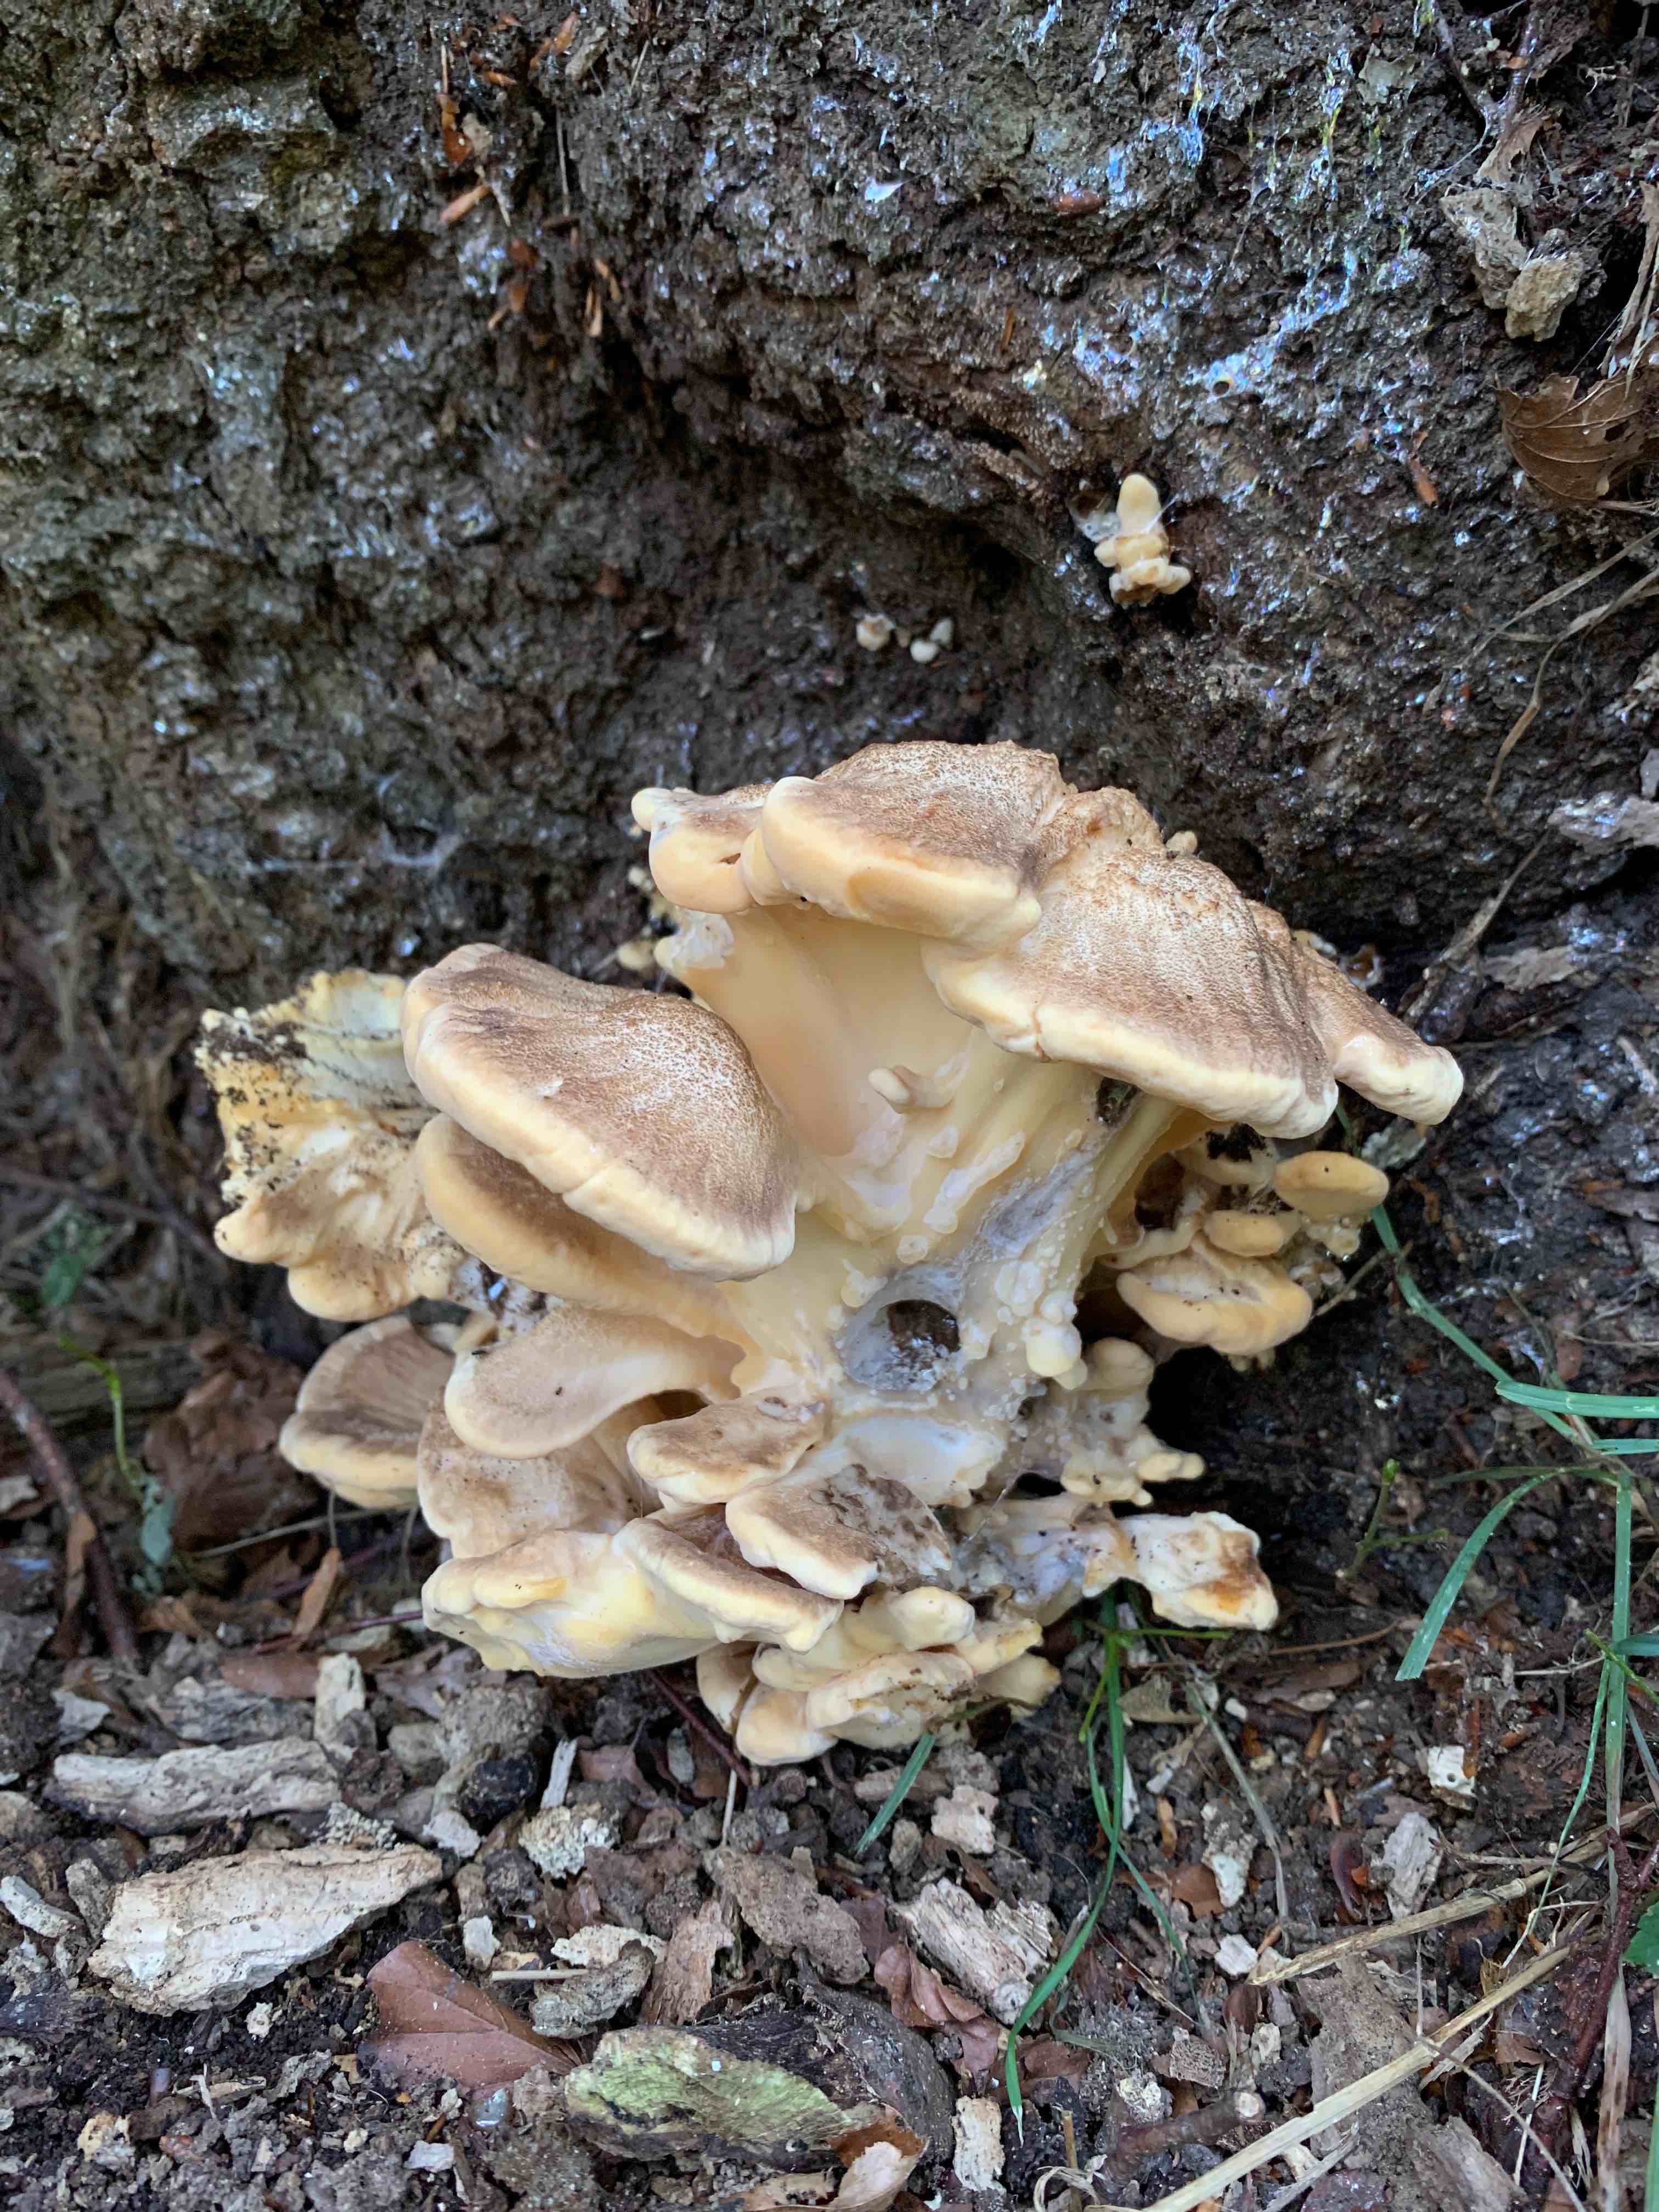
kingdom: Fungi
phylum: Basidiomycota
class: Agaricomycetes
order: Polyporales
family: Meripilaceae
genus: Meripilus
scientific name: Meripilus giganteus
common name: kæmpeporesvamp
